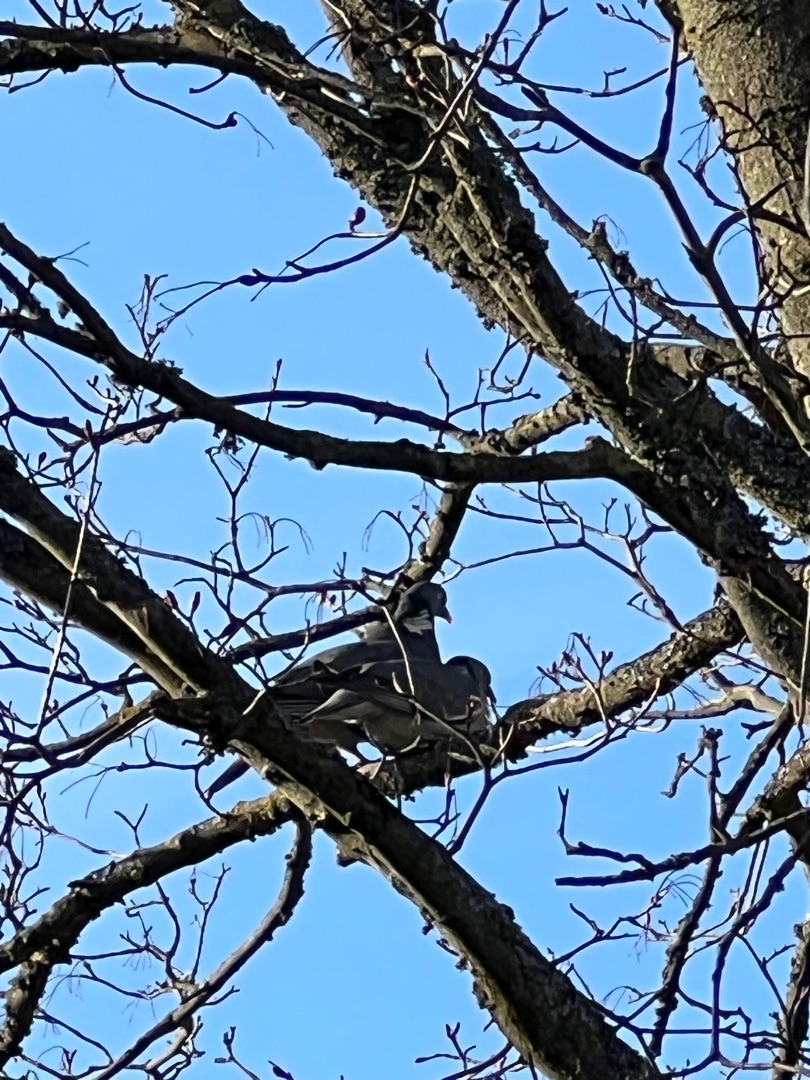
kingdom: Animalia
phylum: Chordata
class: Aves
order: Columbiformes
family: Columbidae
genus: Columba
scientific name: Columba palumbus
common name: Ringdue
